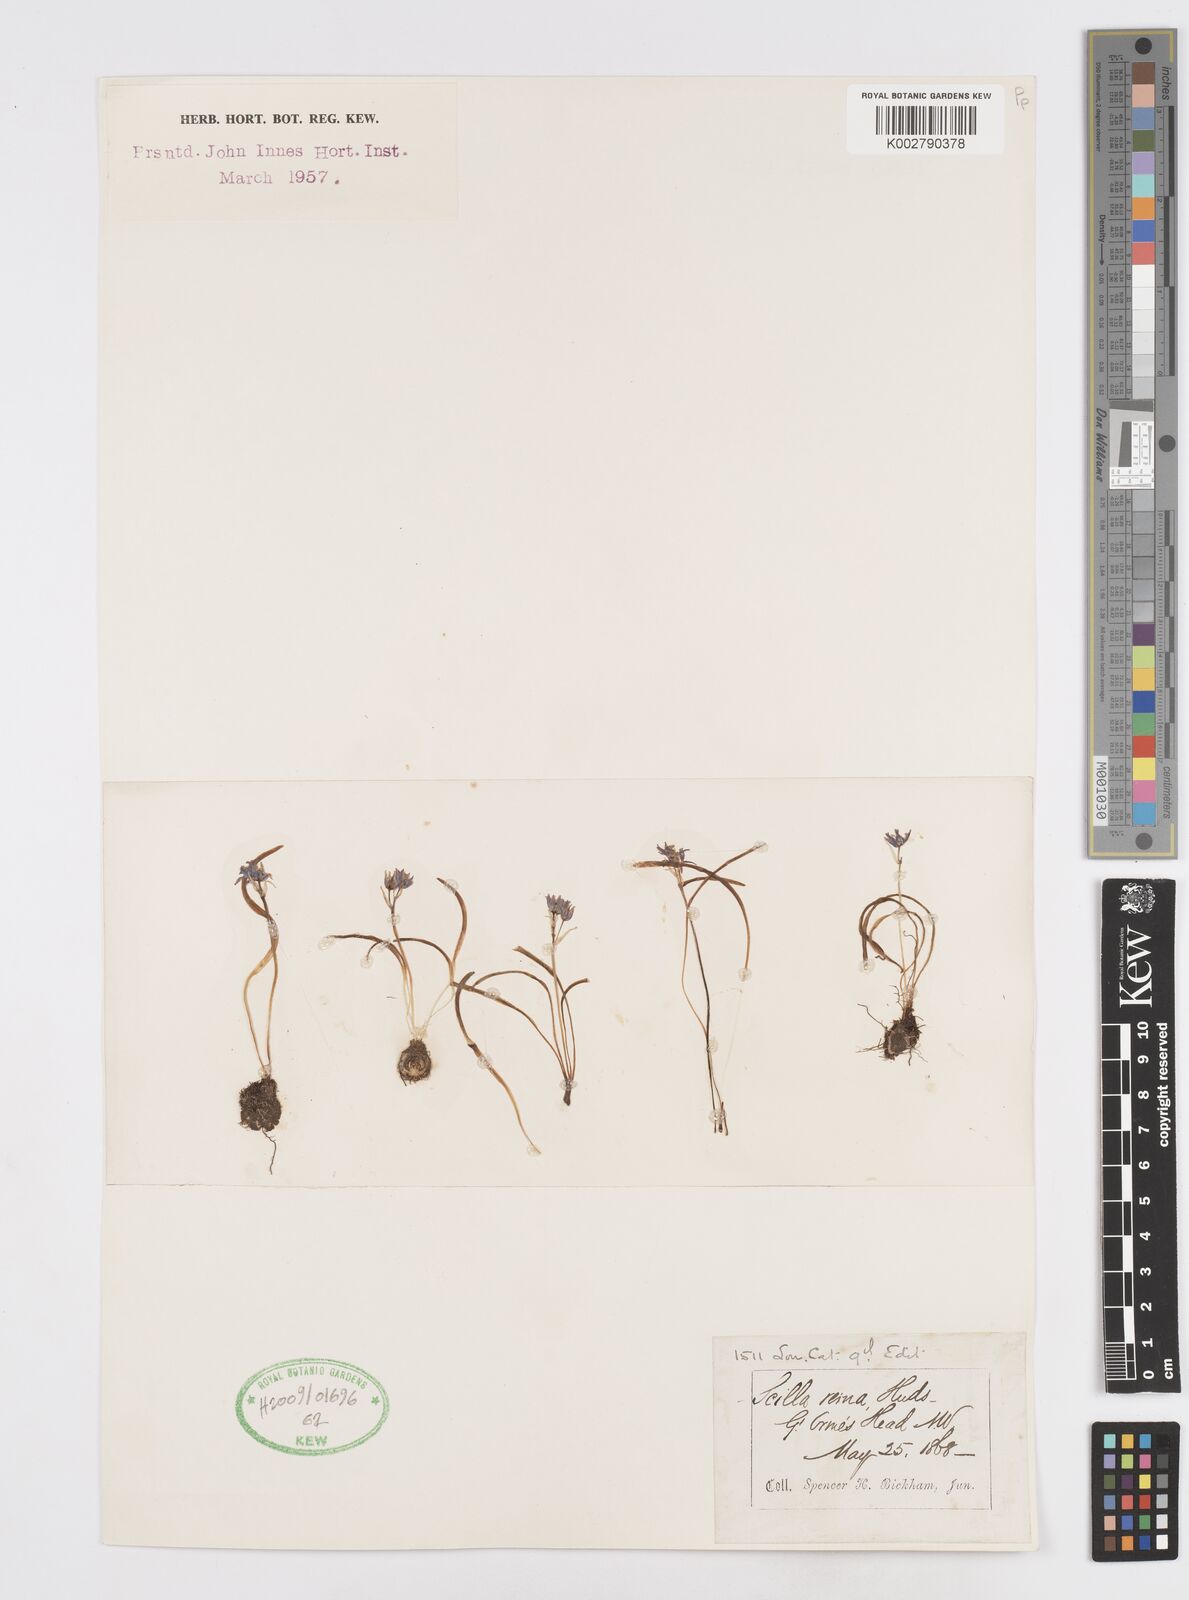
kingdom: Plantae
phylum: Tracheophyta
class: Liliopsida
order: Asparagales
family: Asparagaceae
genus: Scilla
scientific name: Scilla verna
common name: Spring squill
